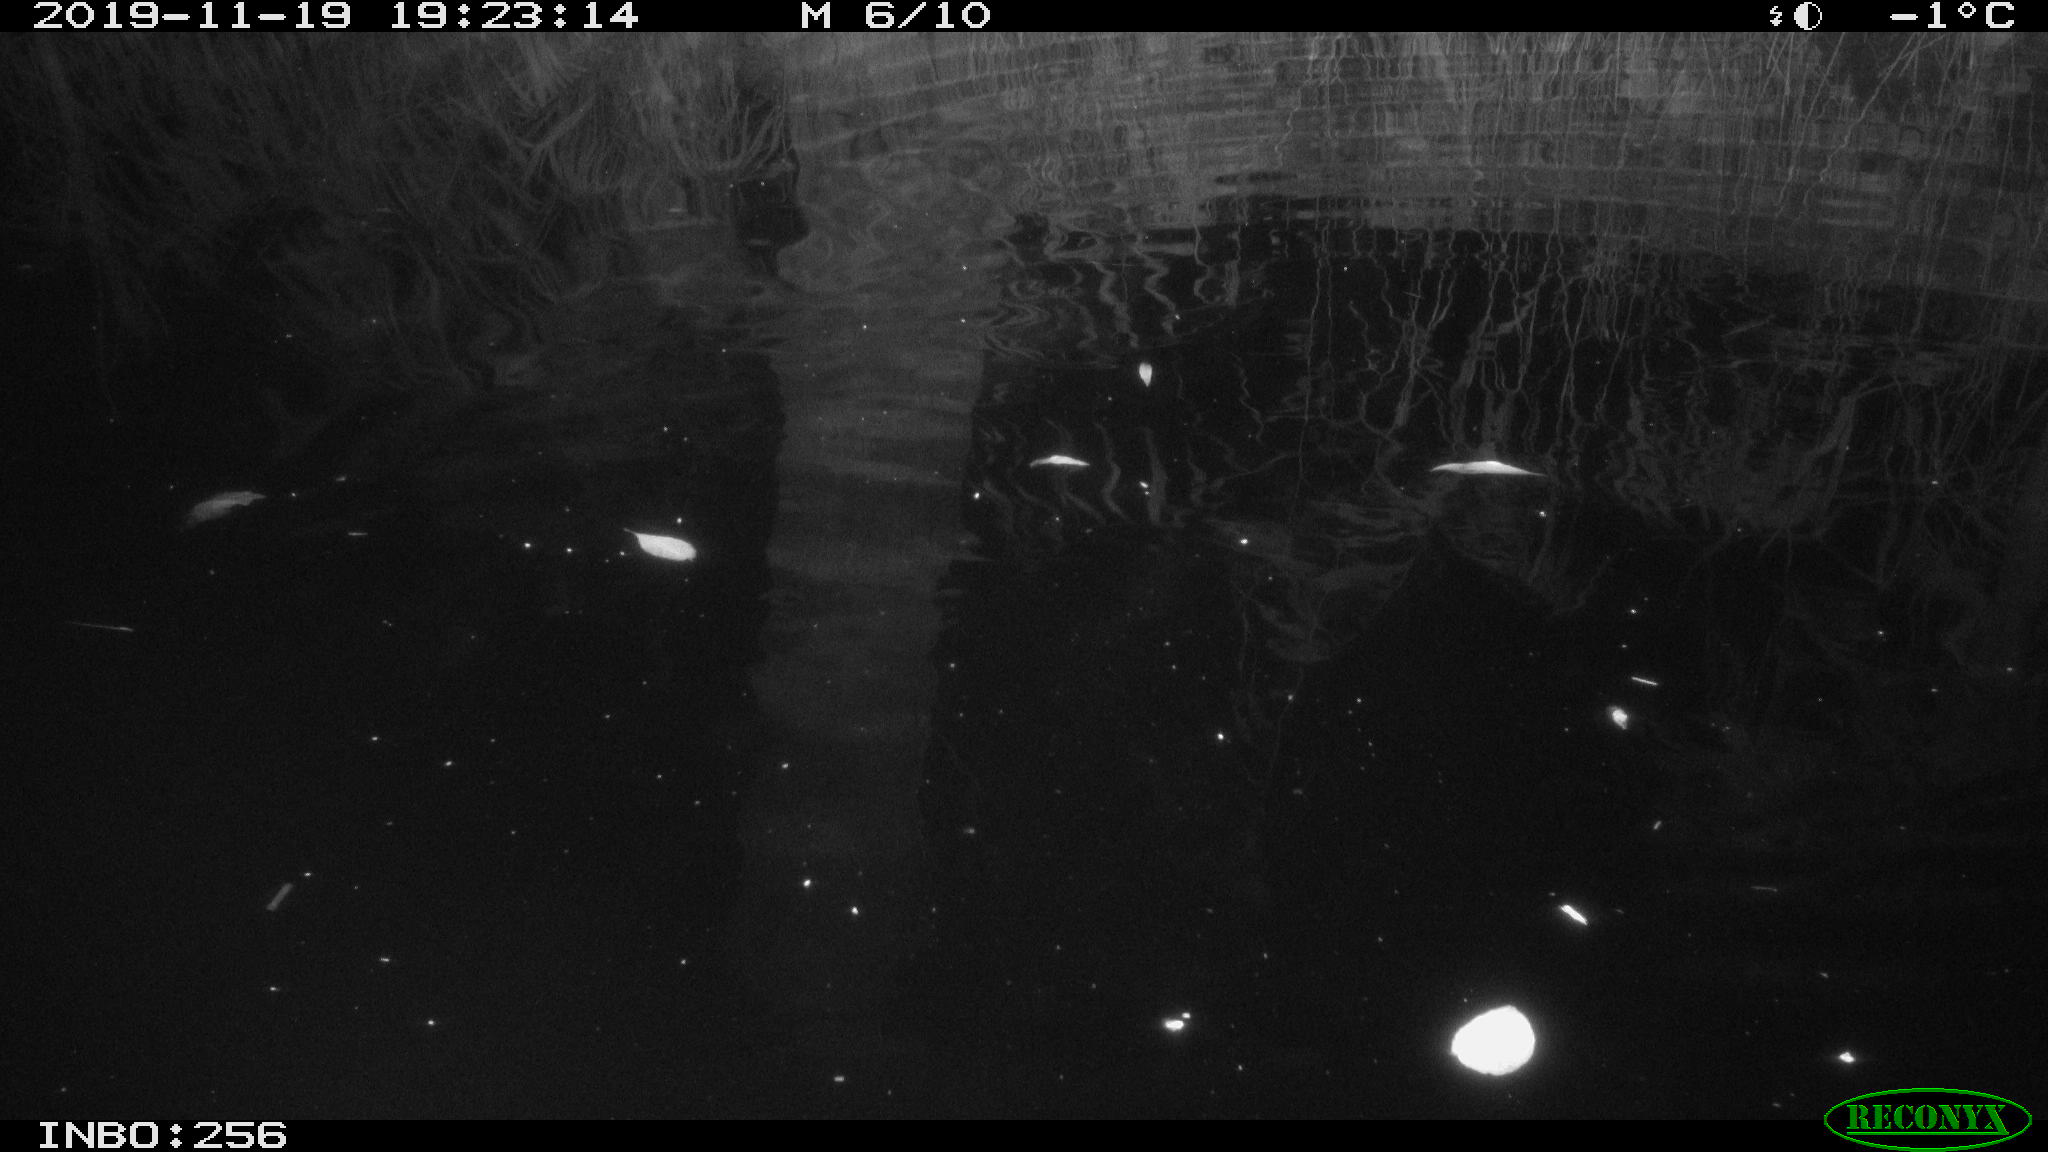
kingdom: Animalia
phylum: Chordata
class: Mammalia
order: Rodentia
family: Muridae
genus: Rattus
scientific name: Rattus norvegicus
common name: Brown rat
